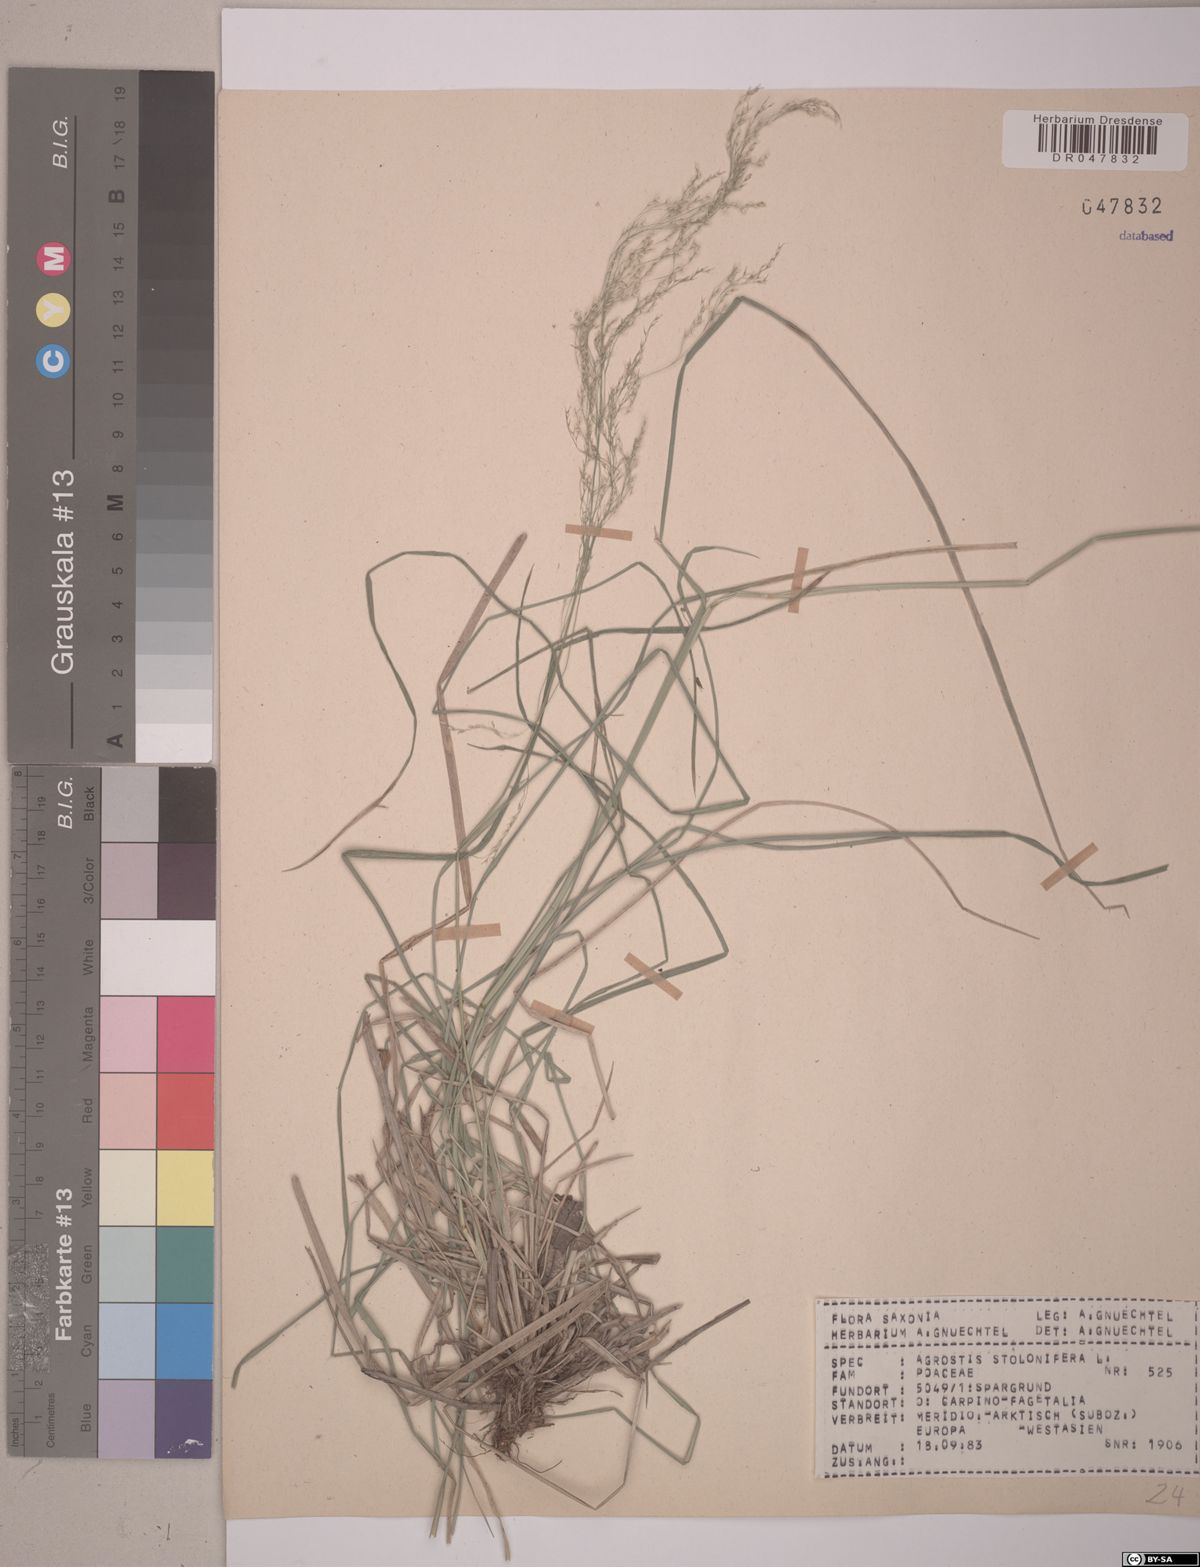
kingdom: Plantae
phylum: Tracheophyta
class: Liliopsida
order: Poales
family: Poaceae
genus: Agrostis
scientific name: Agrostis stolonifera
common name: Creeping bentgrass
